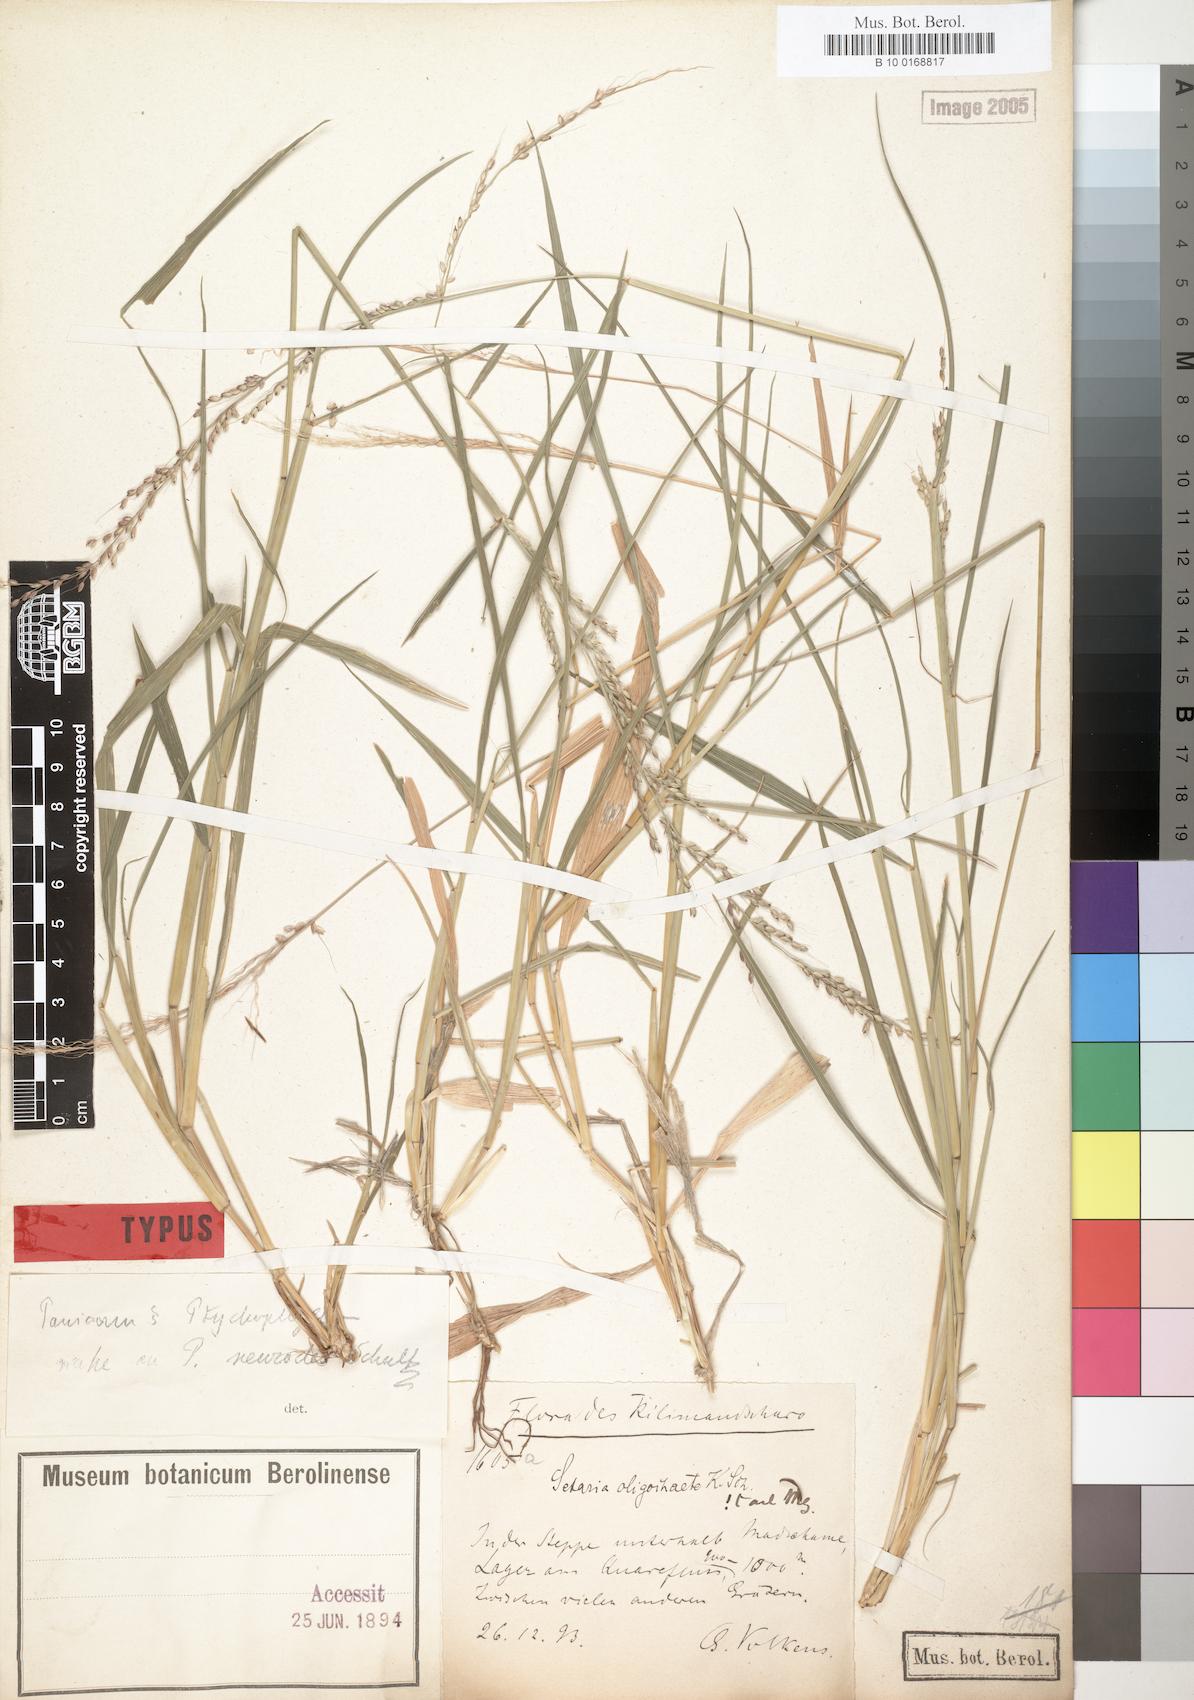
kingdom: Plantae
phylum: Tracheophyta
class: Liliopsida
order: Poales
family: Poaceae
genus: Setaria
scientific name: Setaria megaphylla
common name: Bigleaf bristlegrass
